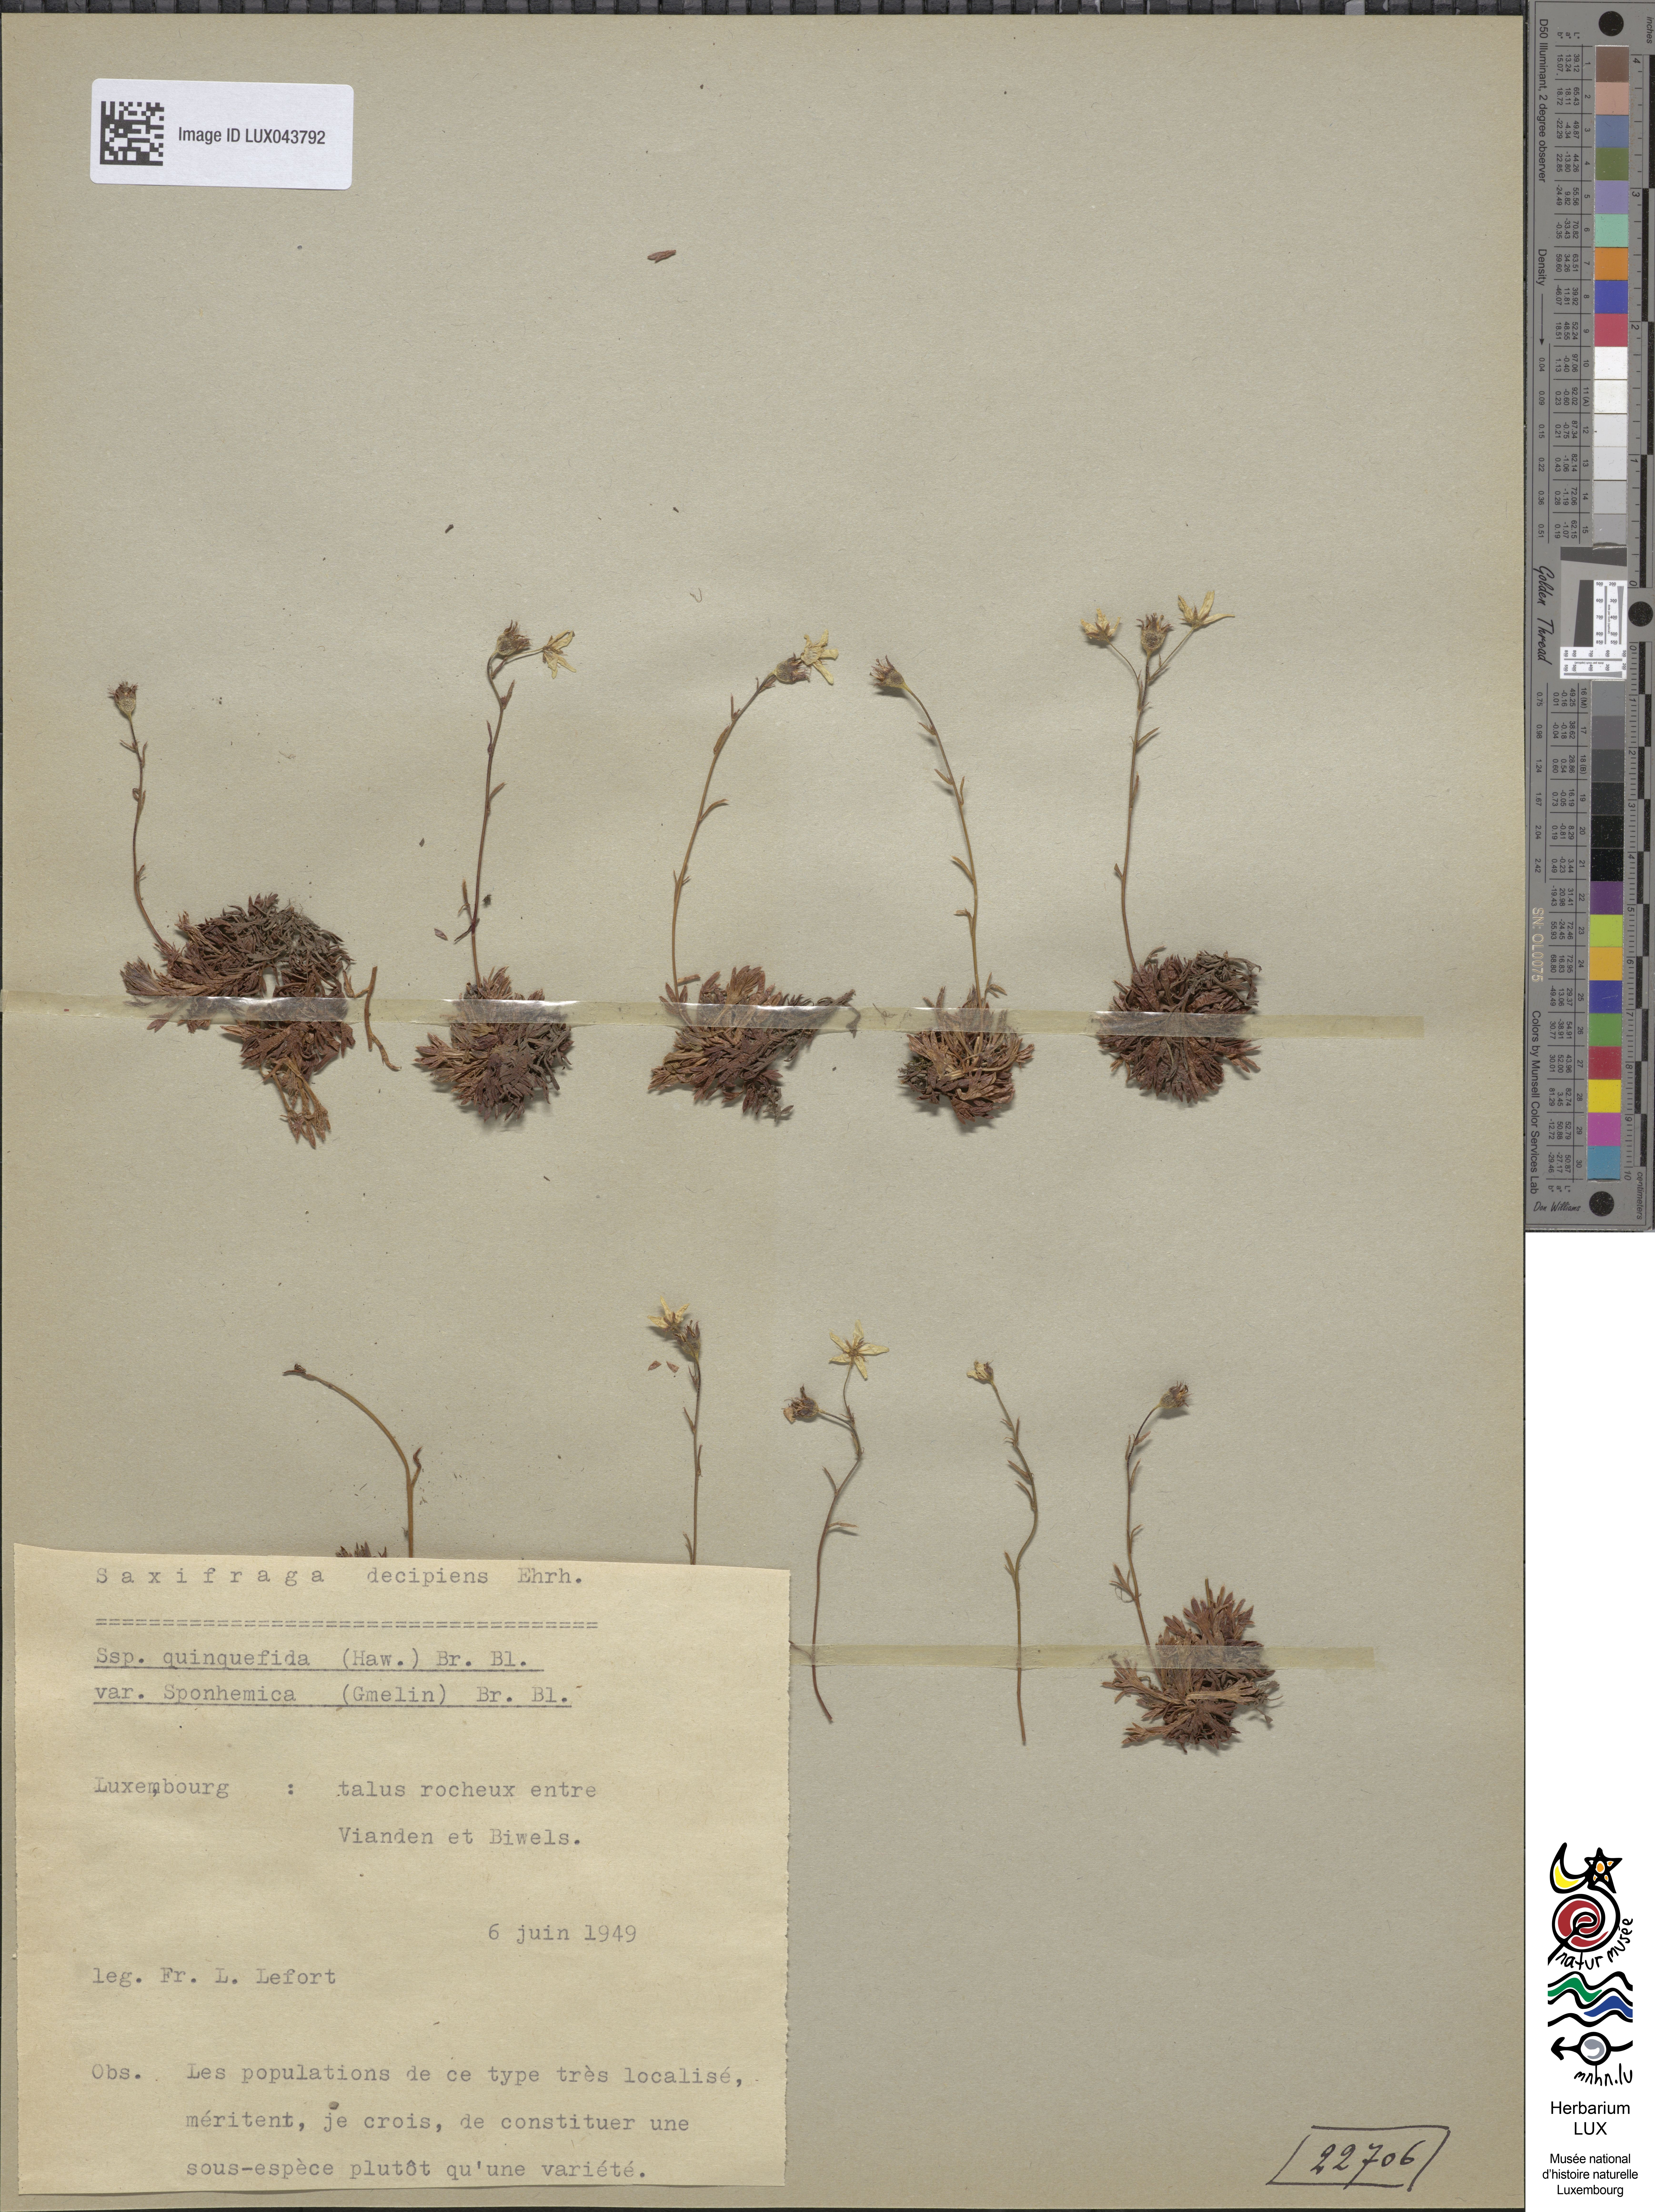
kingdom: Plantae
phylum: Tracheophyta
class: Magnoliopsida
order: Saxifragales
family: Saxifragaceae
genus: Saxifraga
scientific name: Saxifraga rosacea
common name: Irish saxifrage
